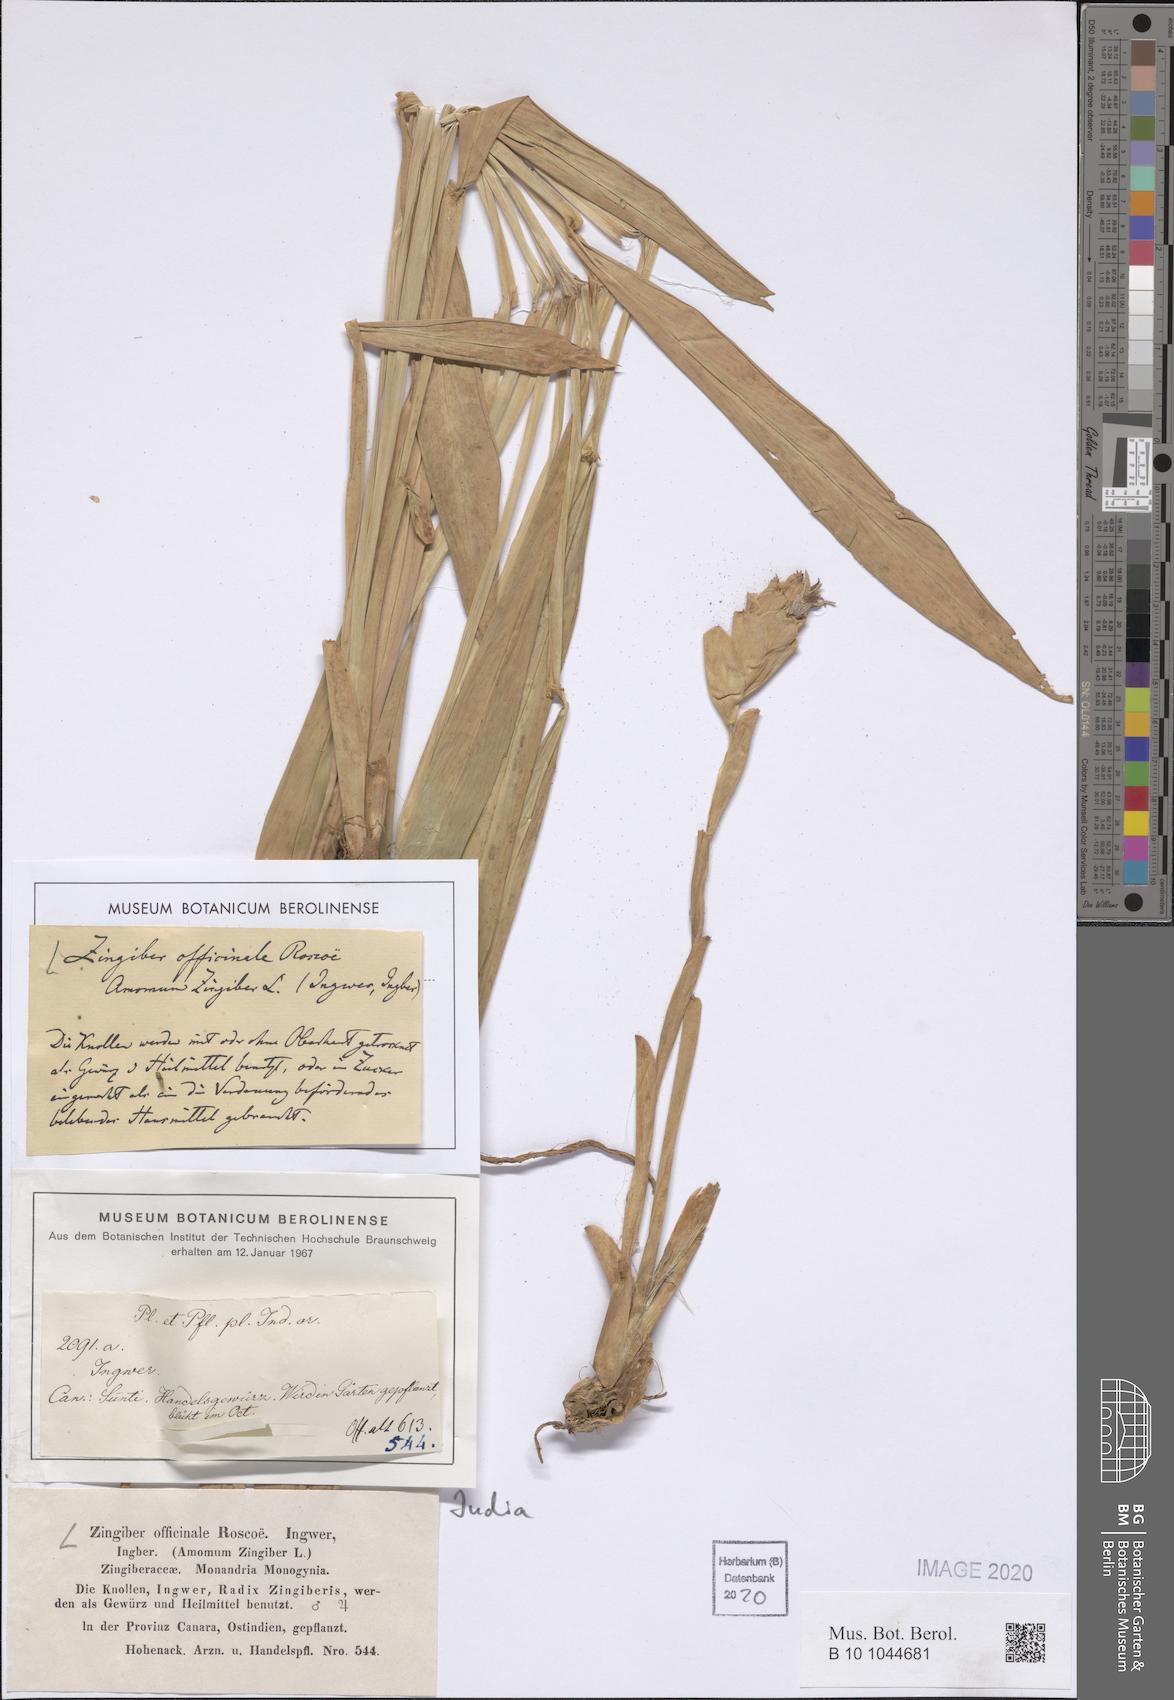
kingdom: Plantae
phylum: Tracheophyta
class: Liliopsida
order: Zingiberales
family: Zingiberaceae
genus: Zingiber
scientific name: Zingiber officinale
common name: Ginger
